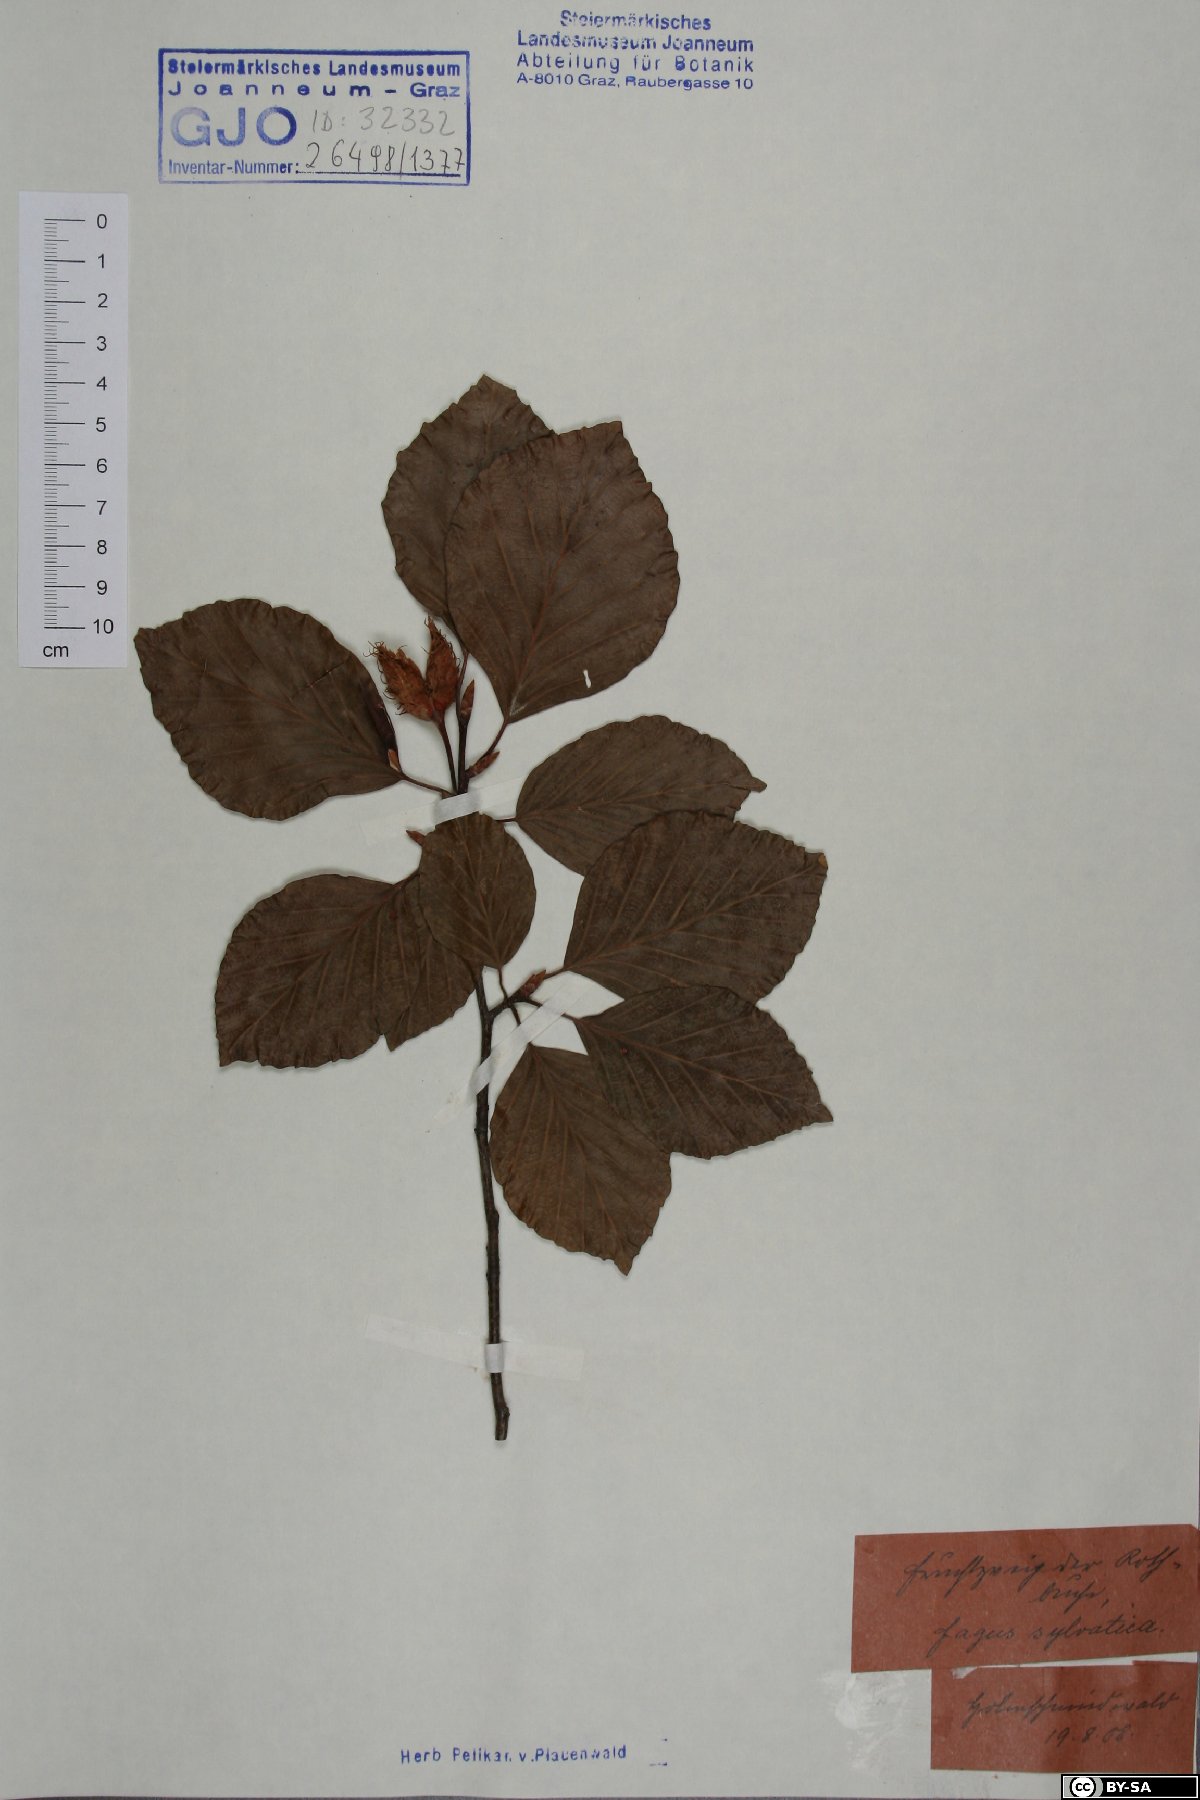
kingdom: Plantae
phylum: Tracheophyta
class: Magnoliopsida
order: Fagales
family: Fagaceae
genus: Fagus
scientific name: Fagus sylvatica
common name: Beech
